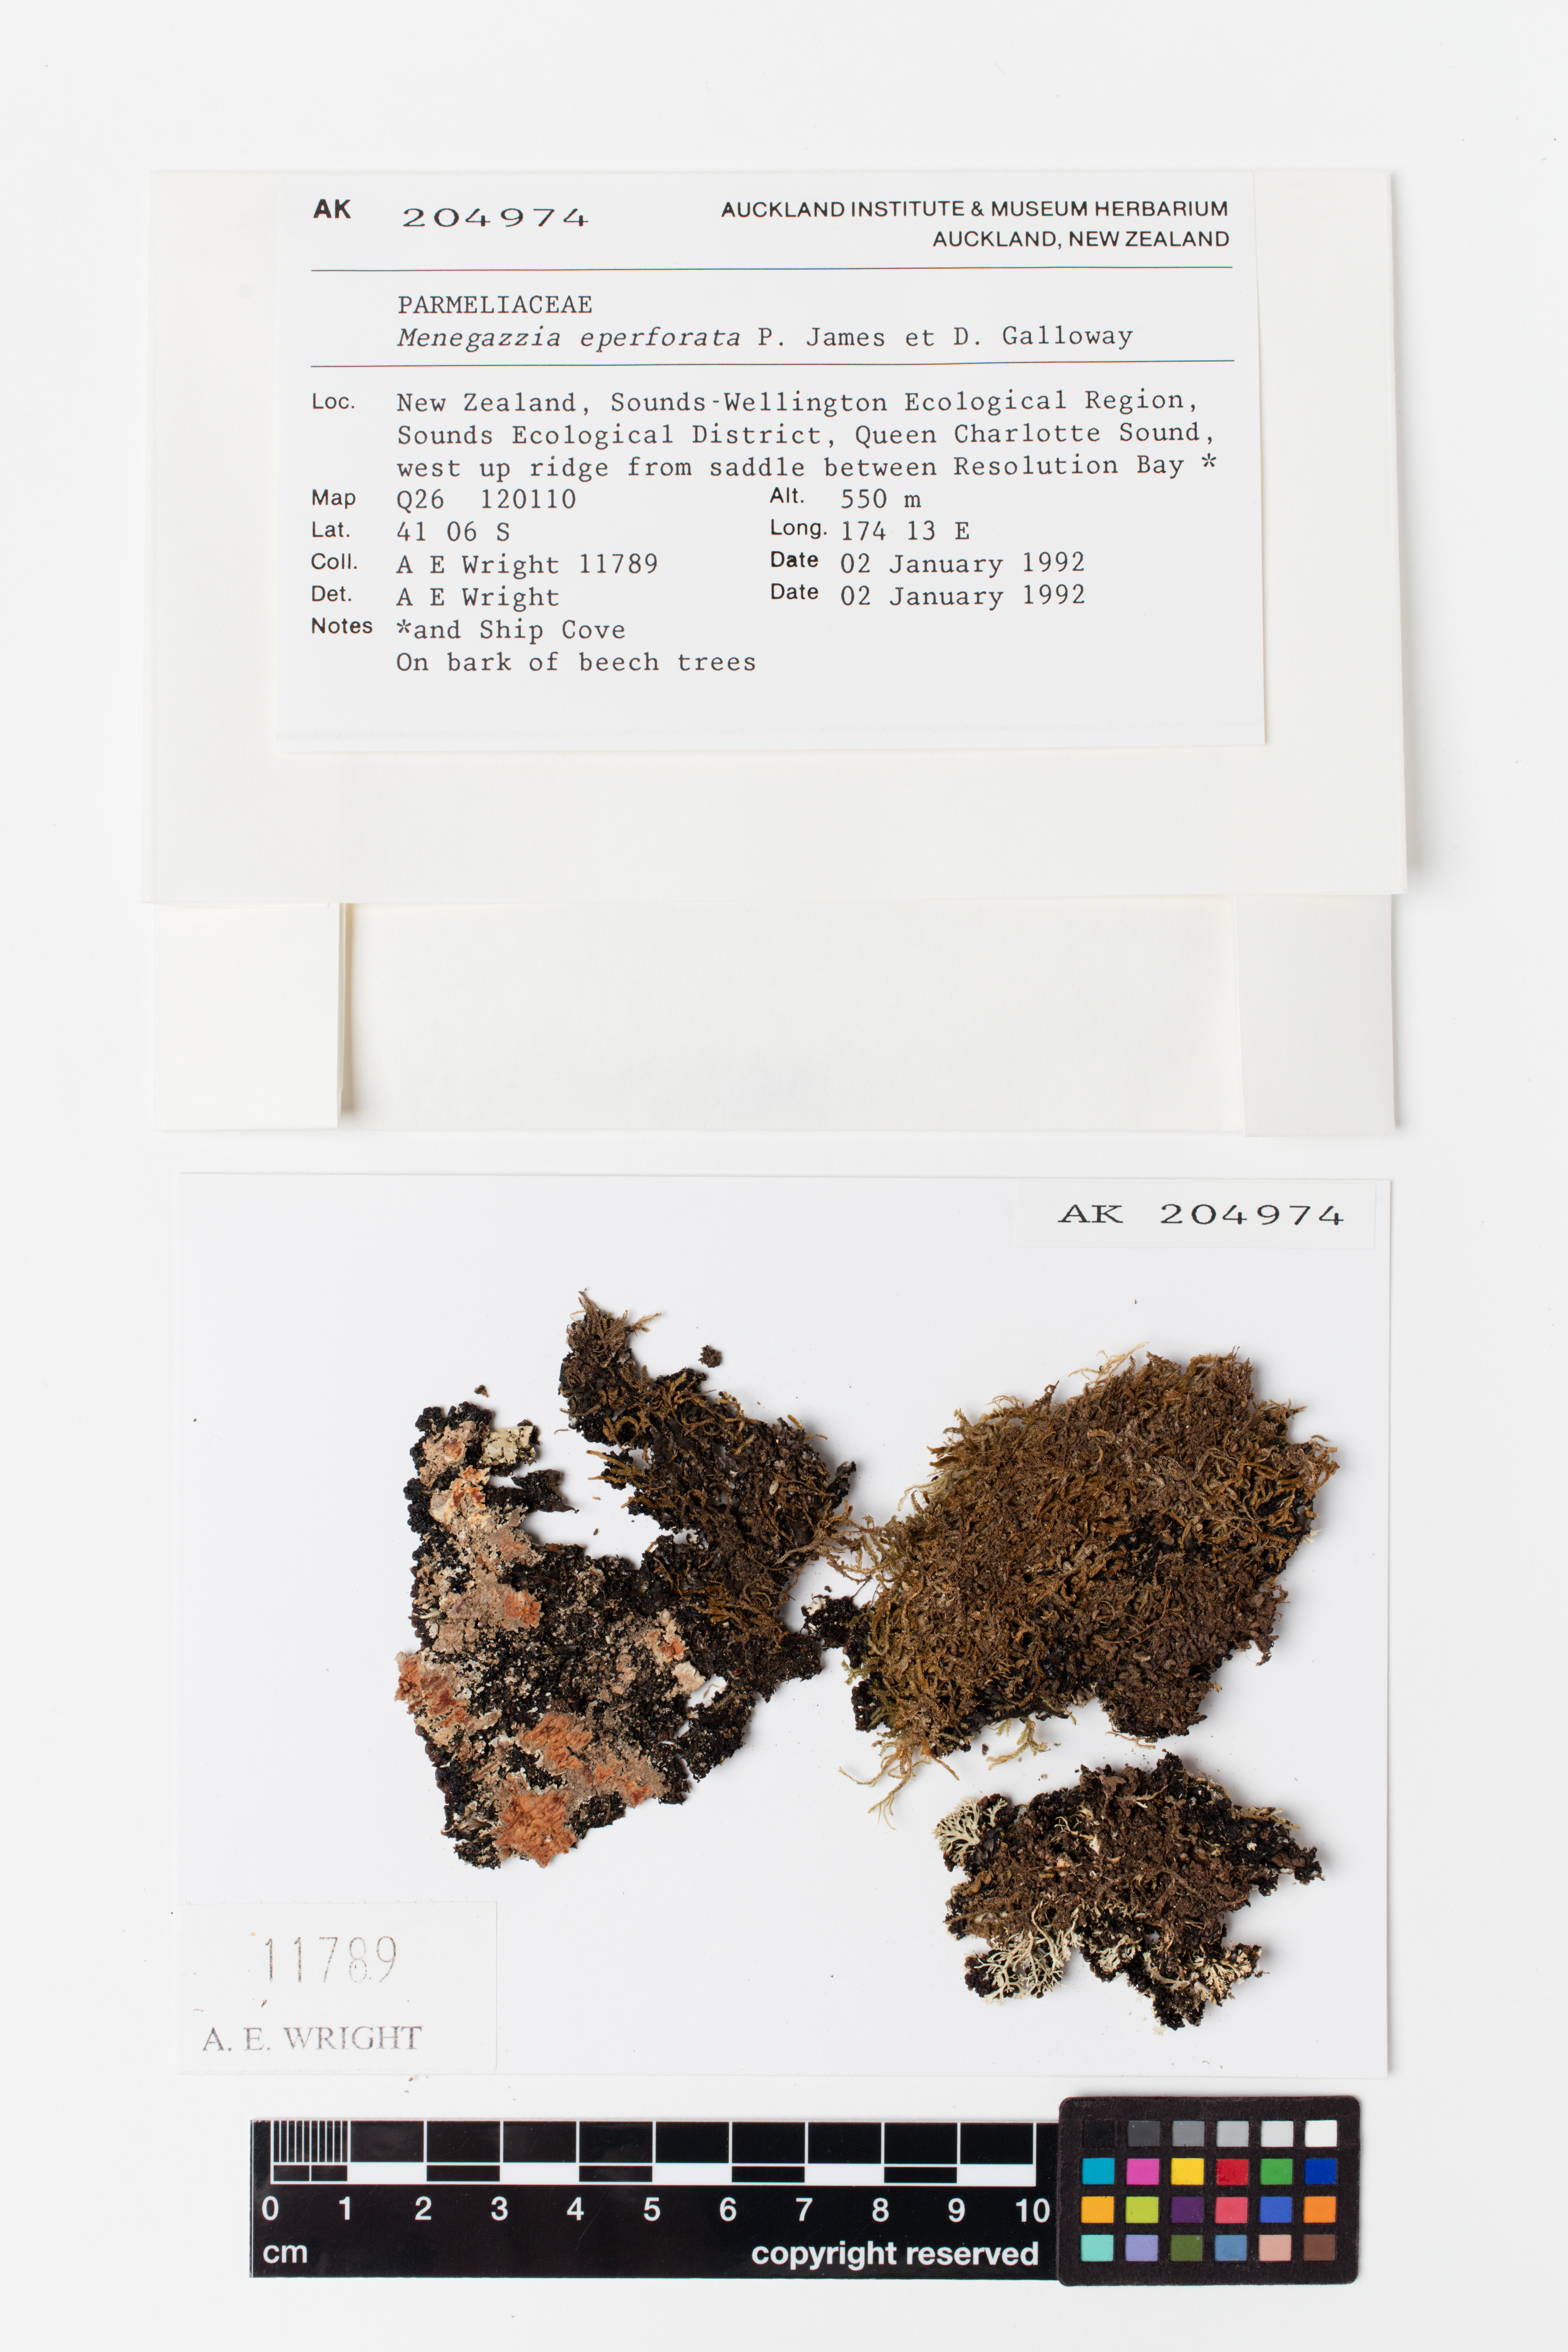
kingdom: Fungi
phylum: Ascomycota
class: Lecanoromycetes
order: Lecanorales
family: Parmeliaceae
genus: Menegazzia
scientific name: Menegazzia eperforata
